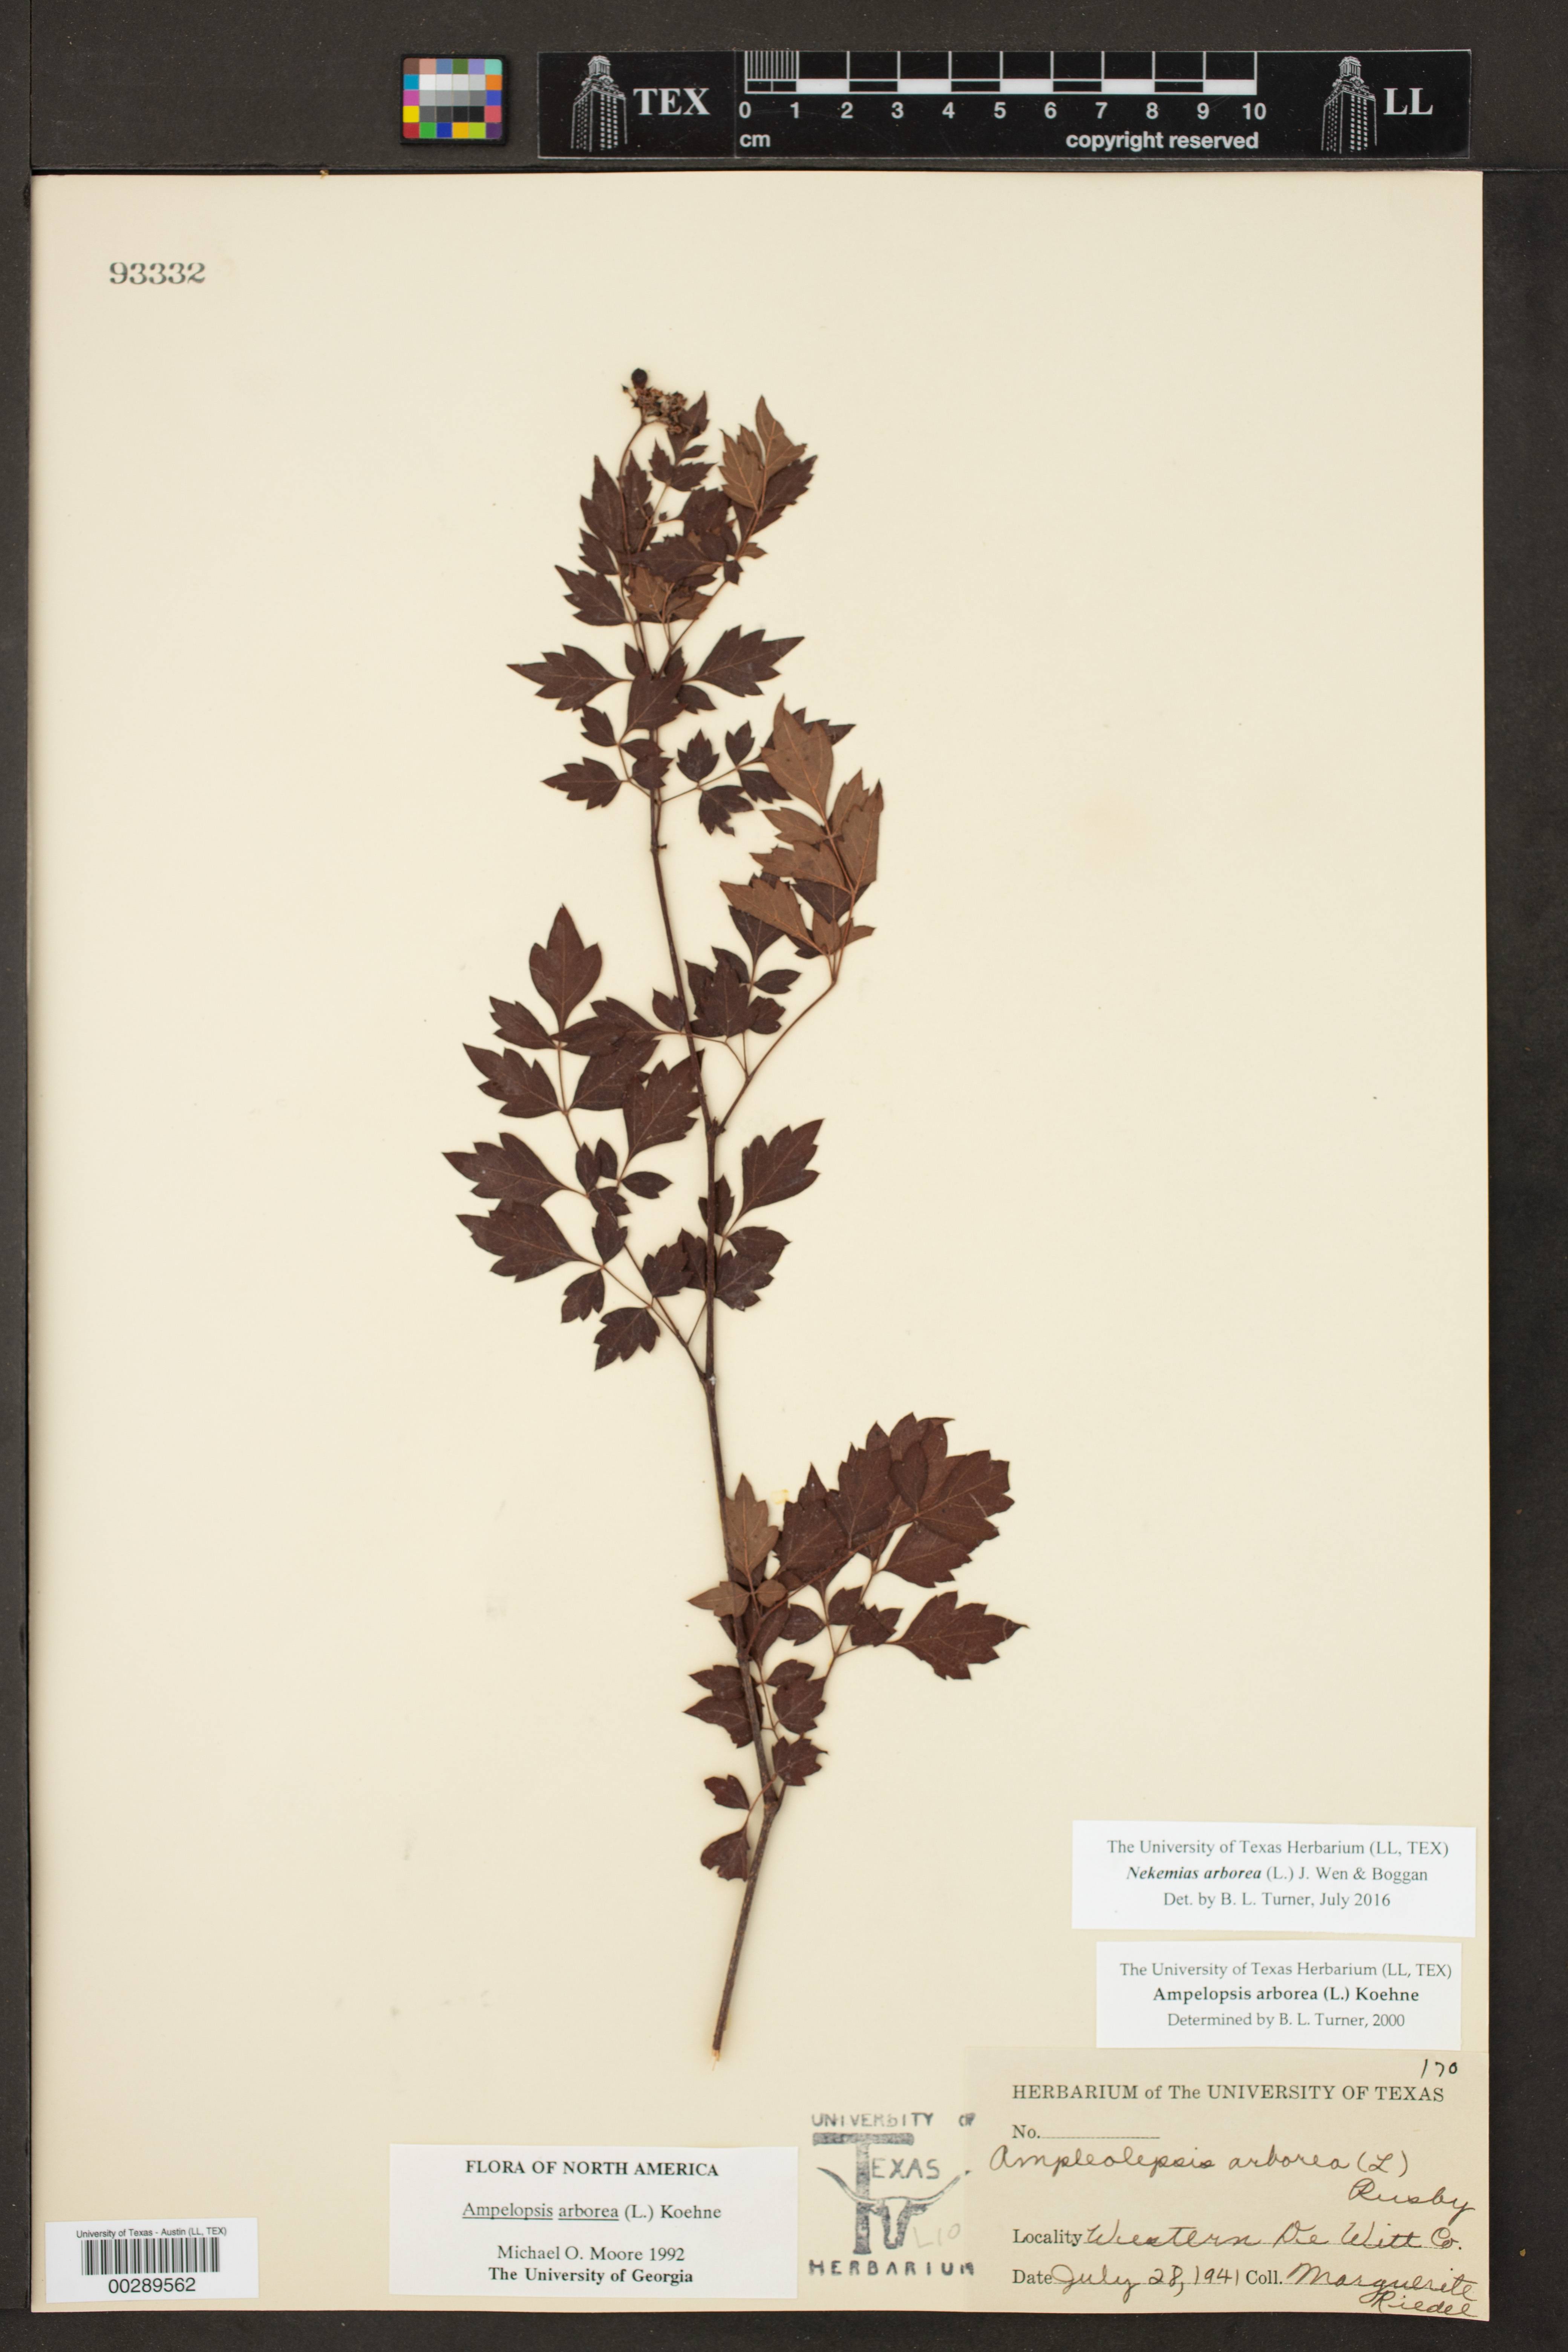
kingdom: Plantae
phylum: Tracheophyta
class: Magnoliopsida
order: Vitales
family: Vitaceae
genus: Ampelopsis
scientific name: Ampelopsis arborea
